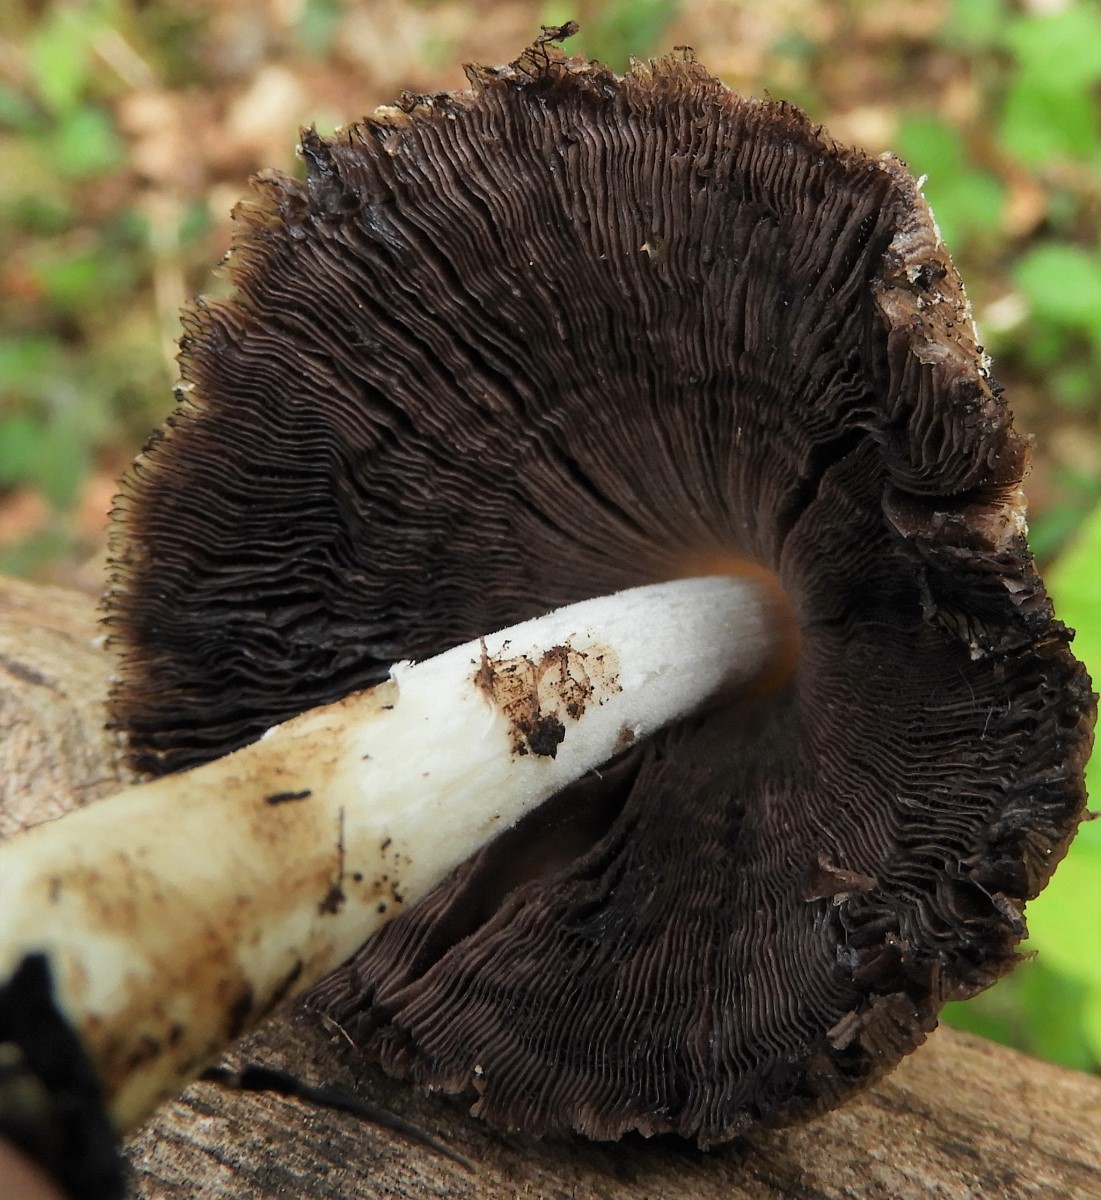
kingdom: Fungi
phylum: Basidiomycota
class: Agaricomycetes
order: Agaricales
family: Psathyrellaceae
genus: Coprinellus
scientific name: Coprinellus
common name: blækhat
